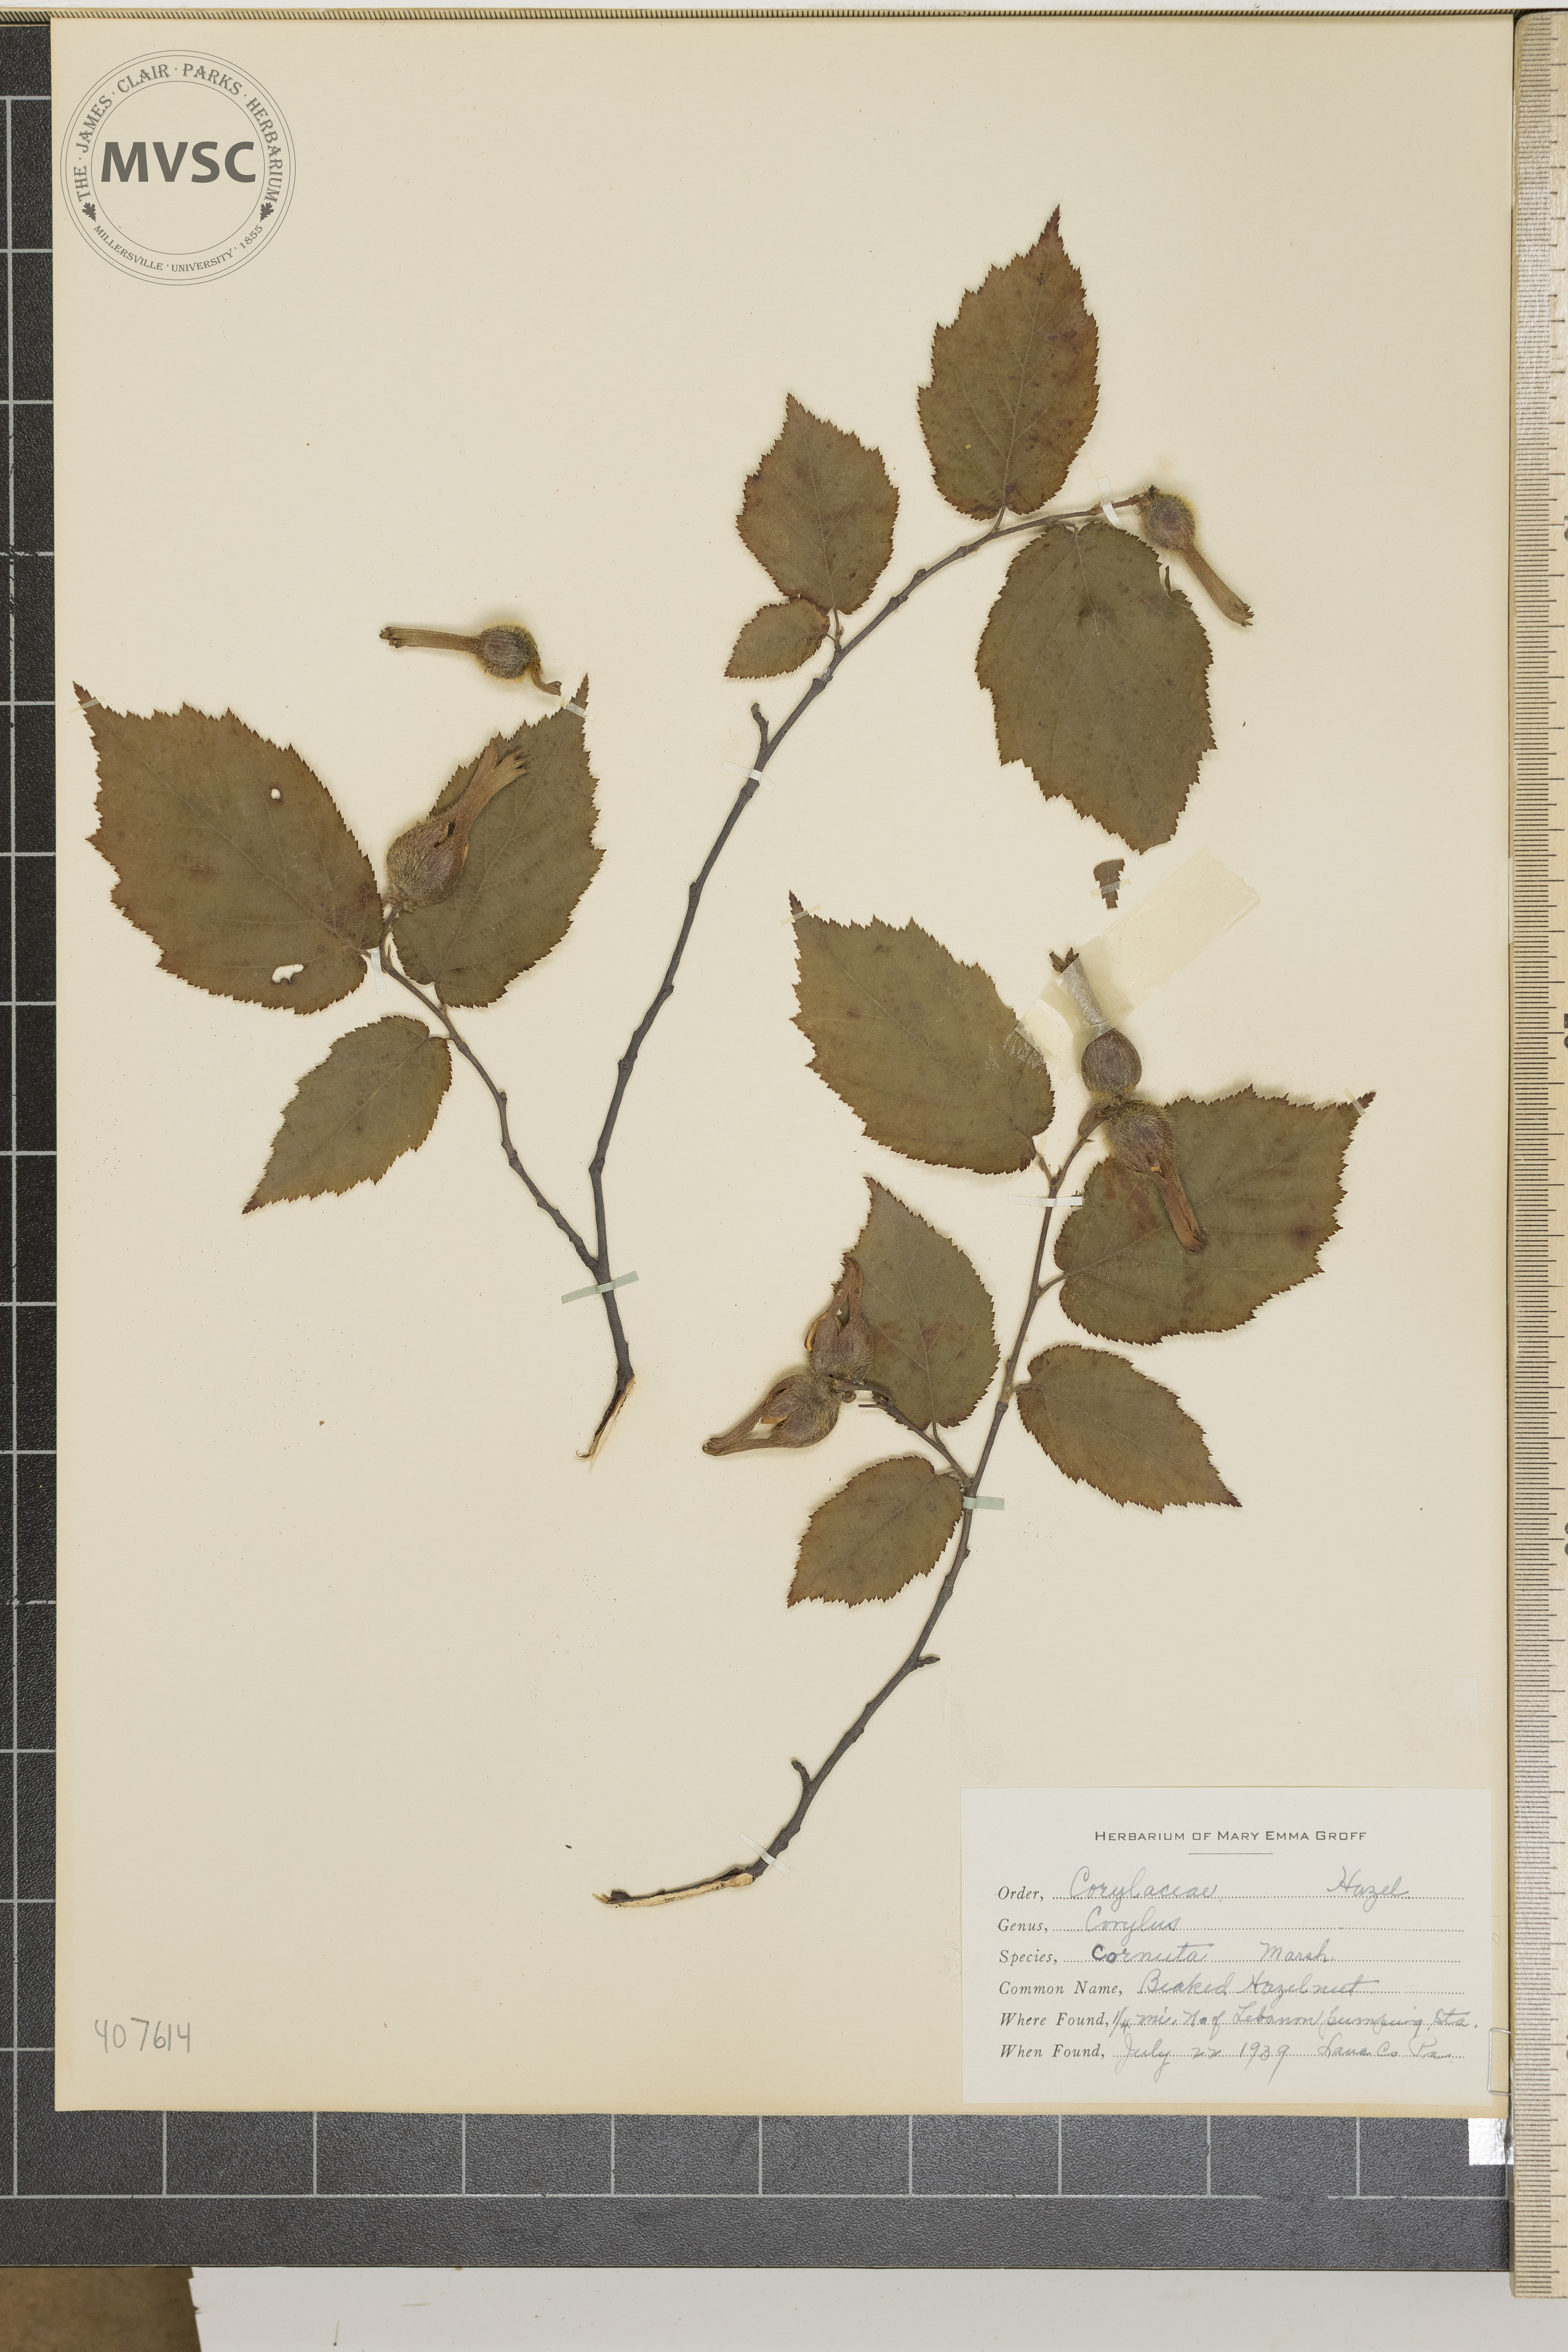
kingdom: Plantae
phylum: Tracheophyta
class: Magnoliopsida
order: Fagales
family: Betulaceae
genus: Corylus
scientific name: Corylus cornuta
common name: Beaked Hazelnut
